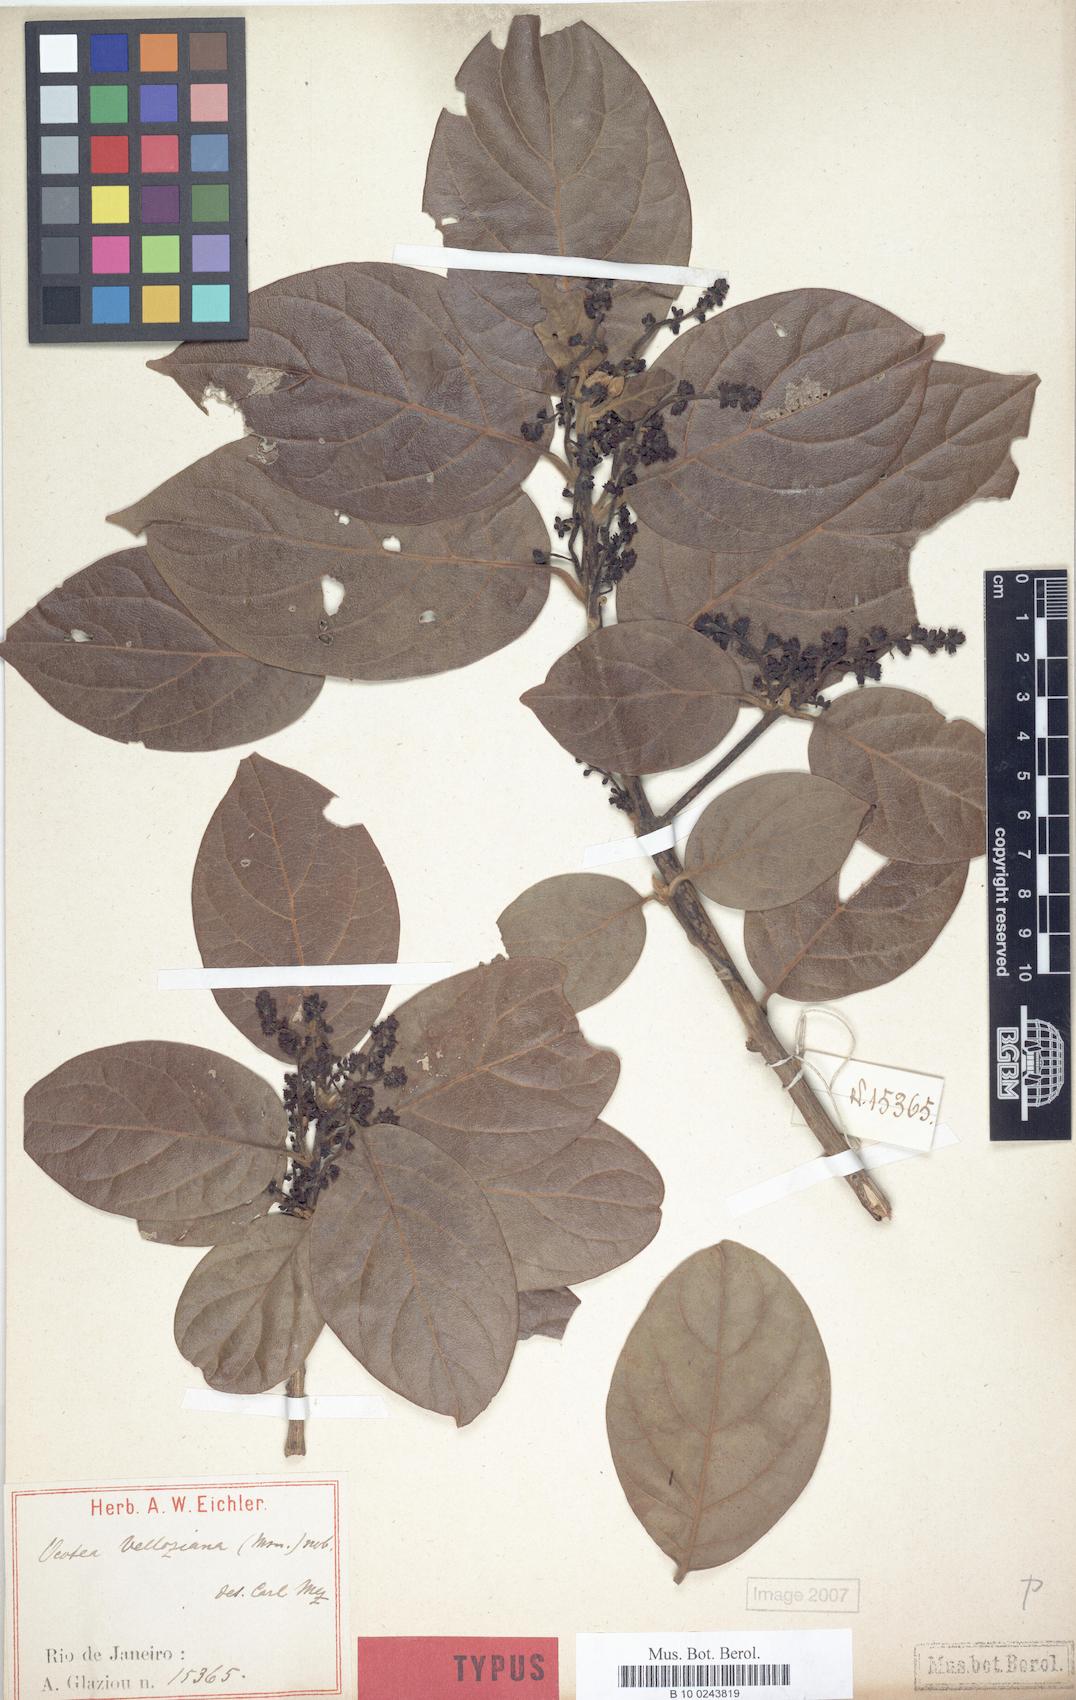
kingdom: Plantae
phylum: Tracheophyta
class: Magnoliopsida
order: Laurales
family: Lauraceae
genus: Ocotea
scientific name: Ocotea velloziana
